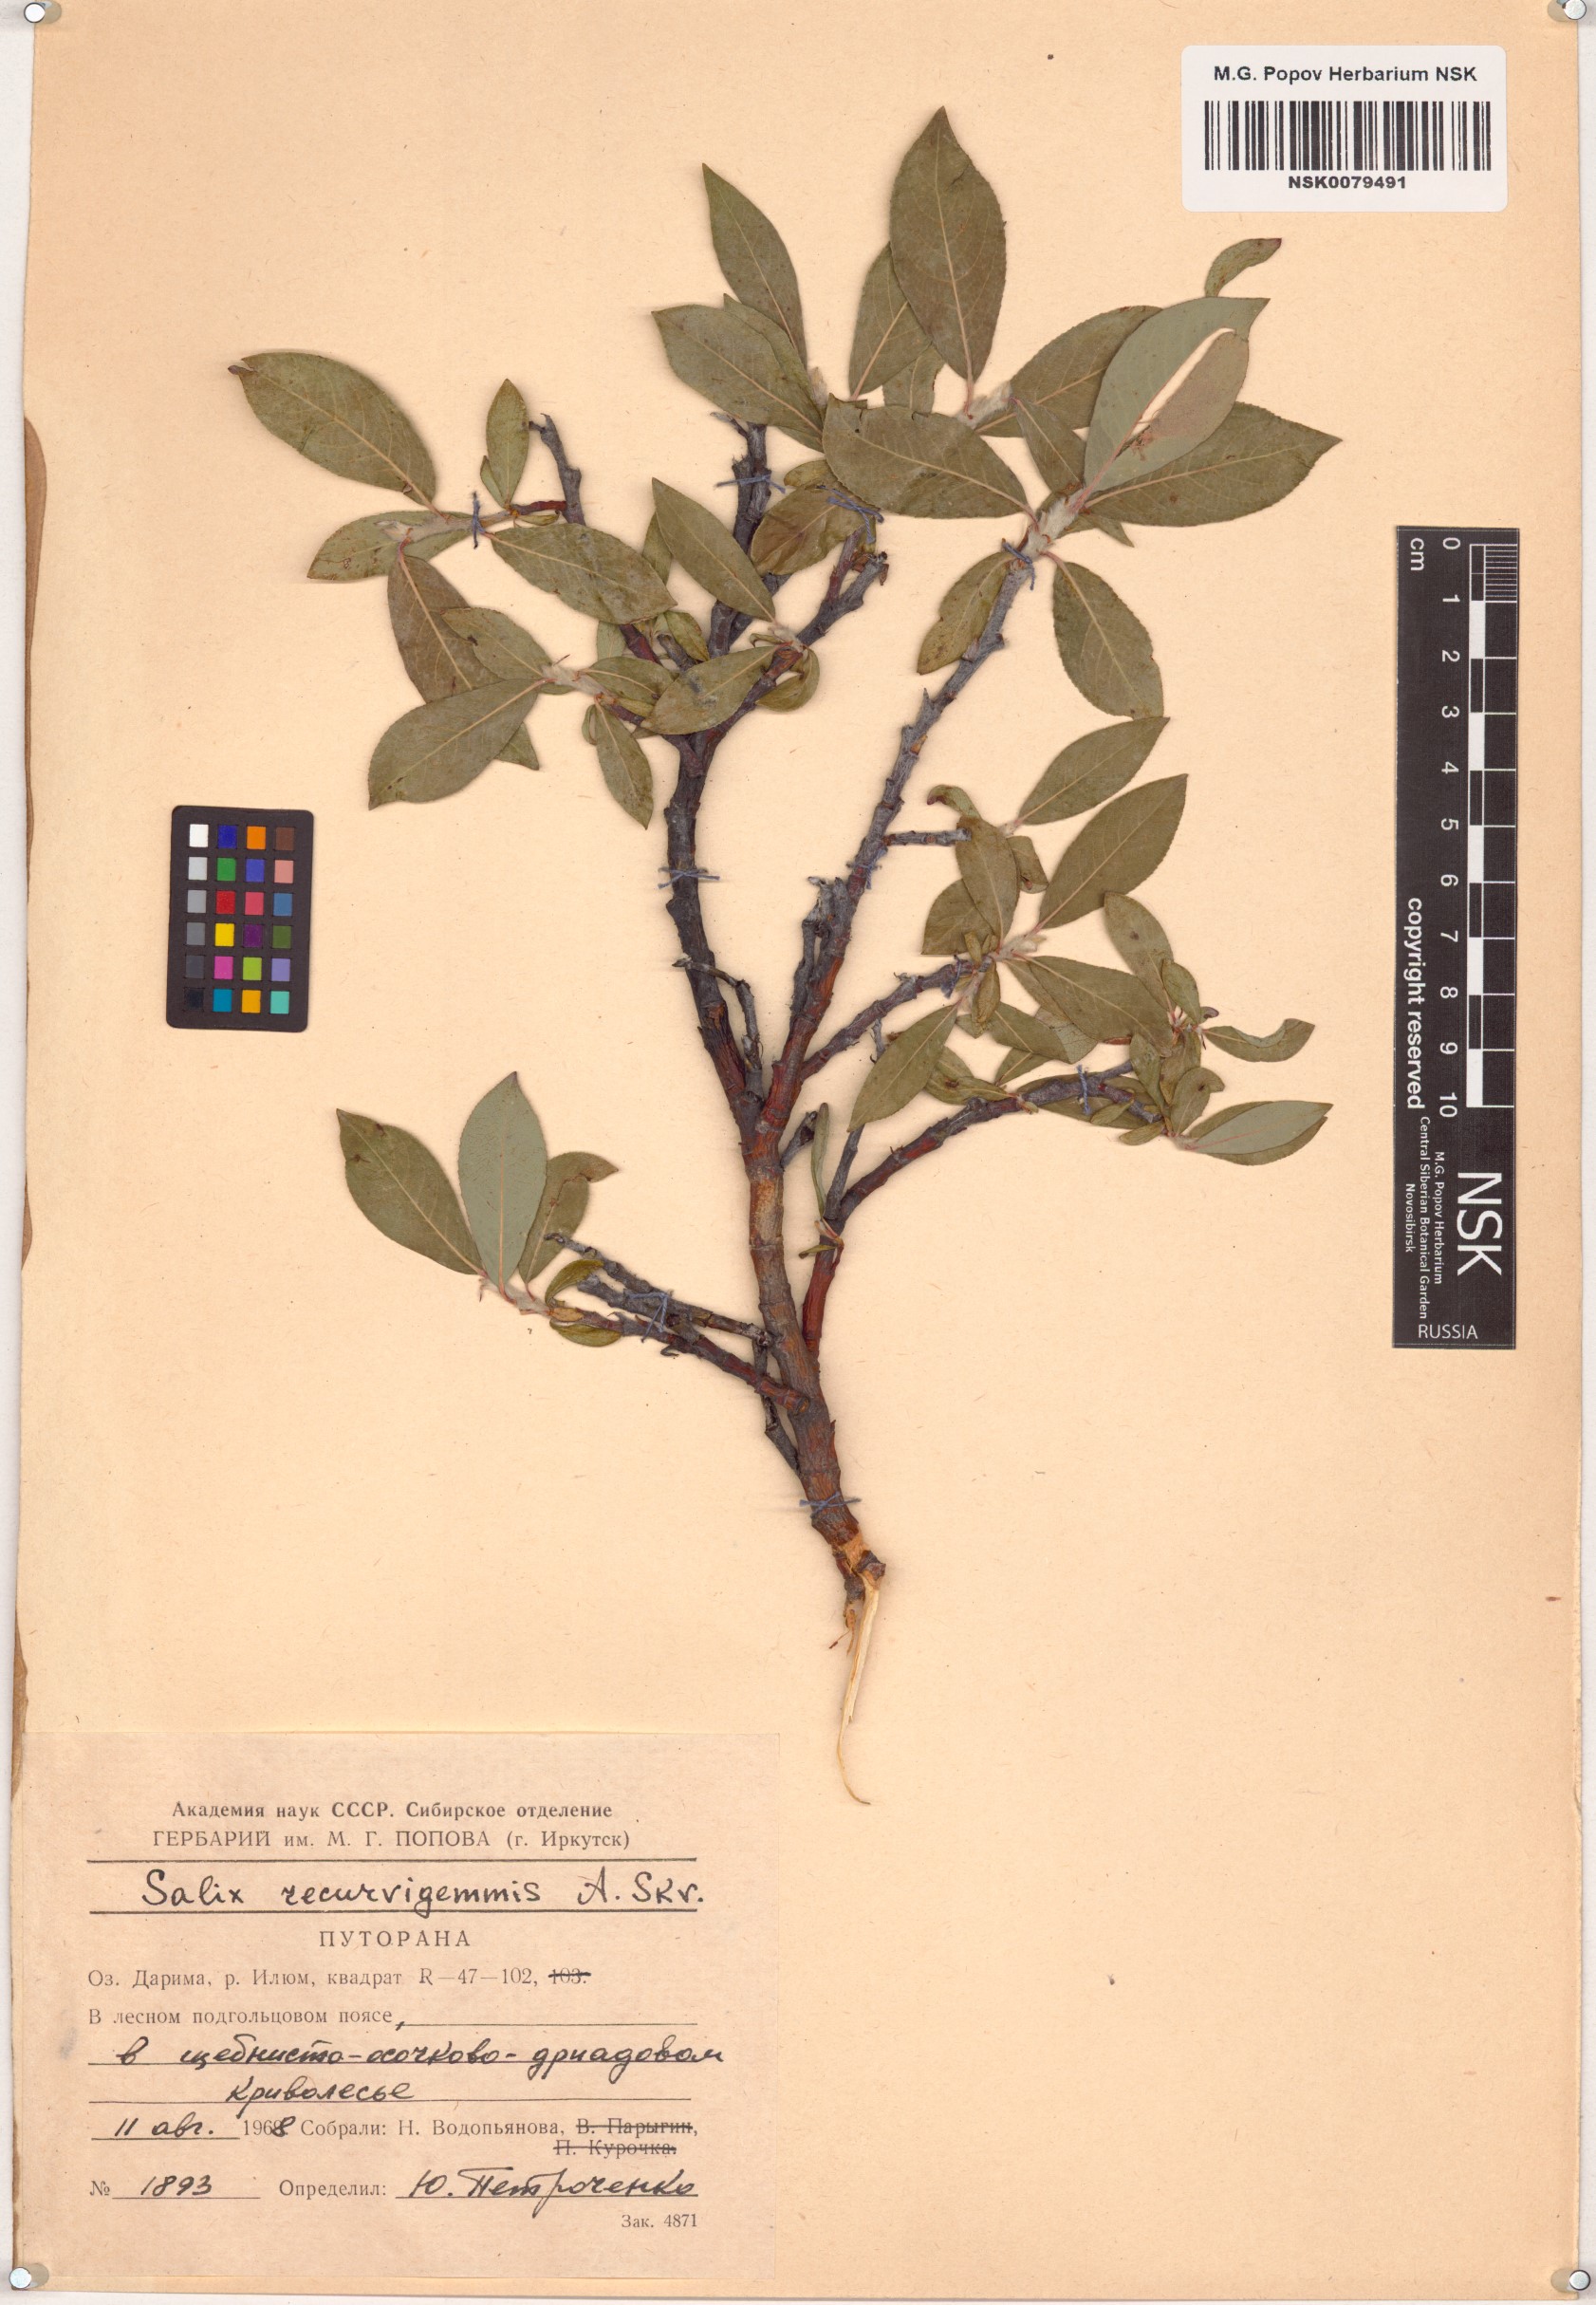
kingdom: Plantae
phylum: Tracheophyta
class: Magnoliopsida
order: Malpighiales
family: Salicaceae
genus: Salix
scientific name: Salix recurvigemmata
